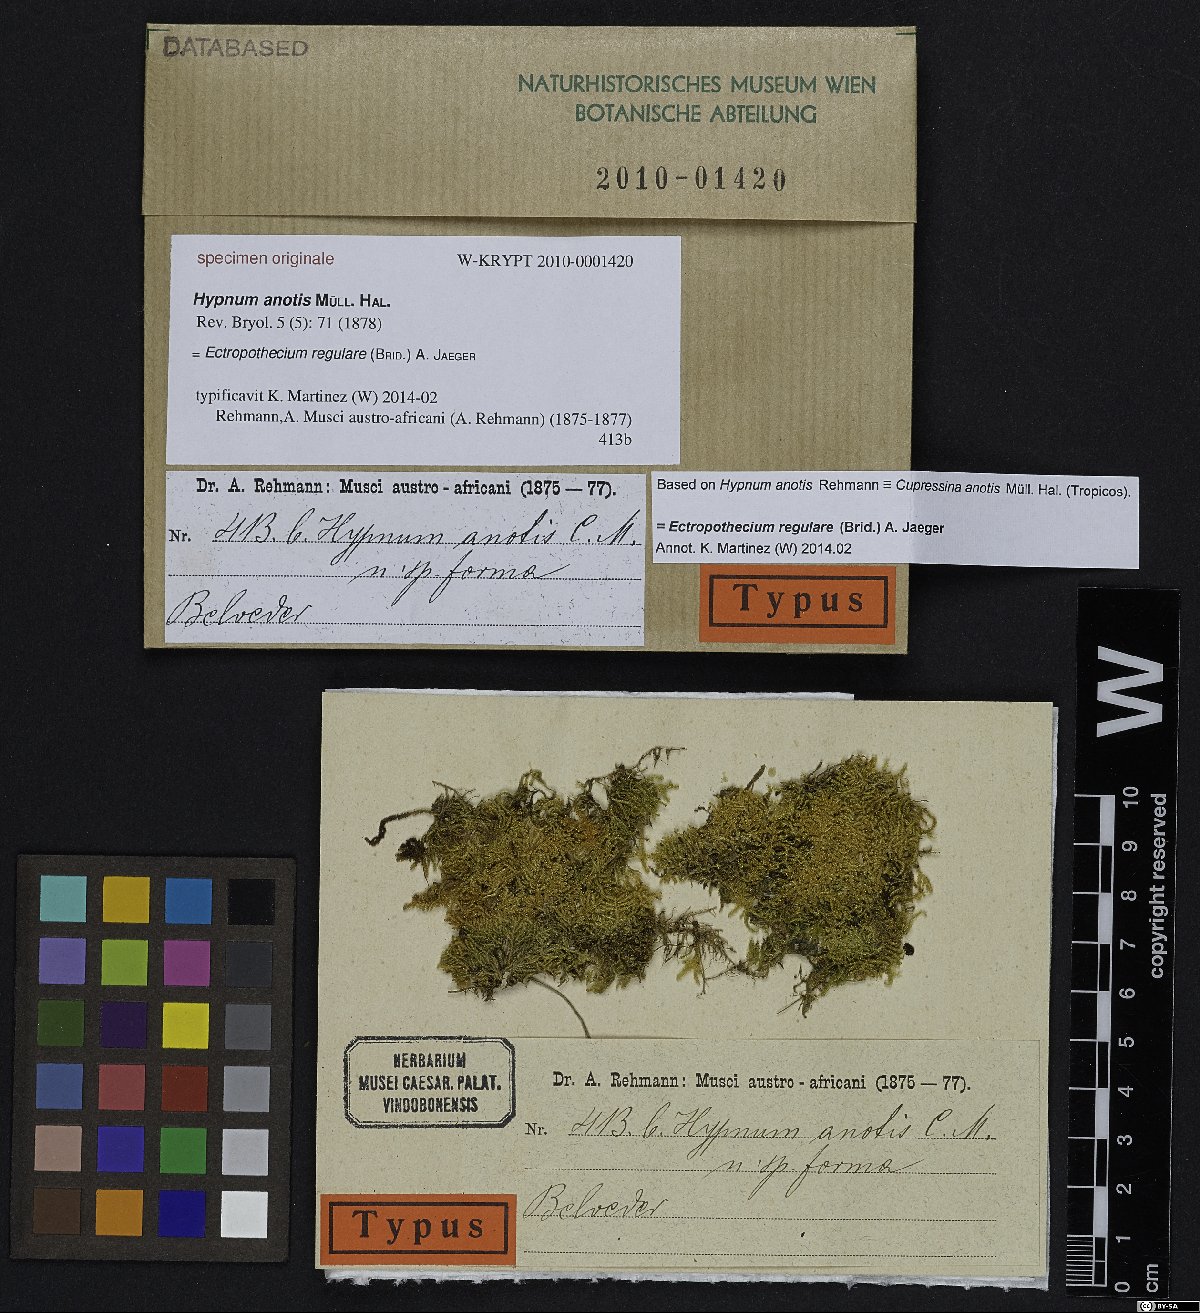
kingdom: Plantae
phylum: Bryophyta
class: Bryopsida
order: Hypnales
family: Hypnaceae
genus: Hypnum
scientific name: Hypnum
